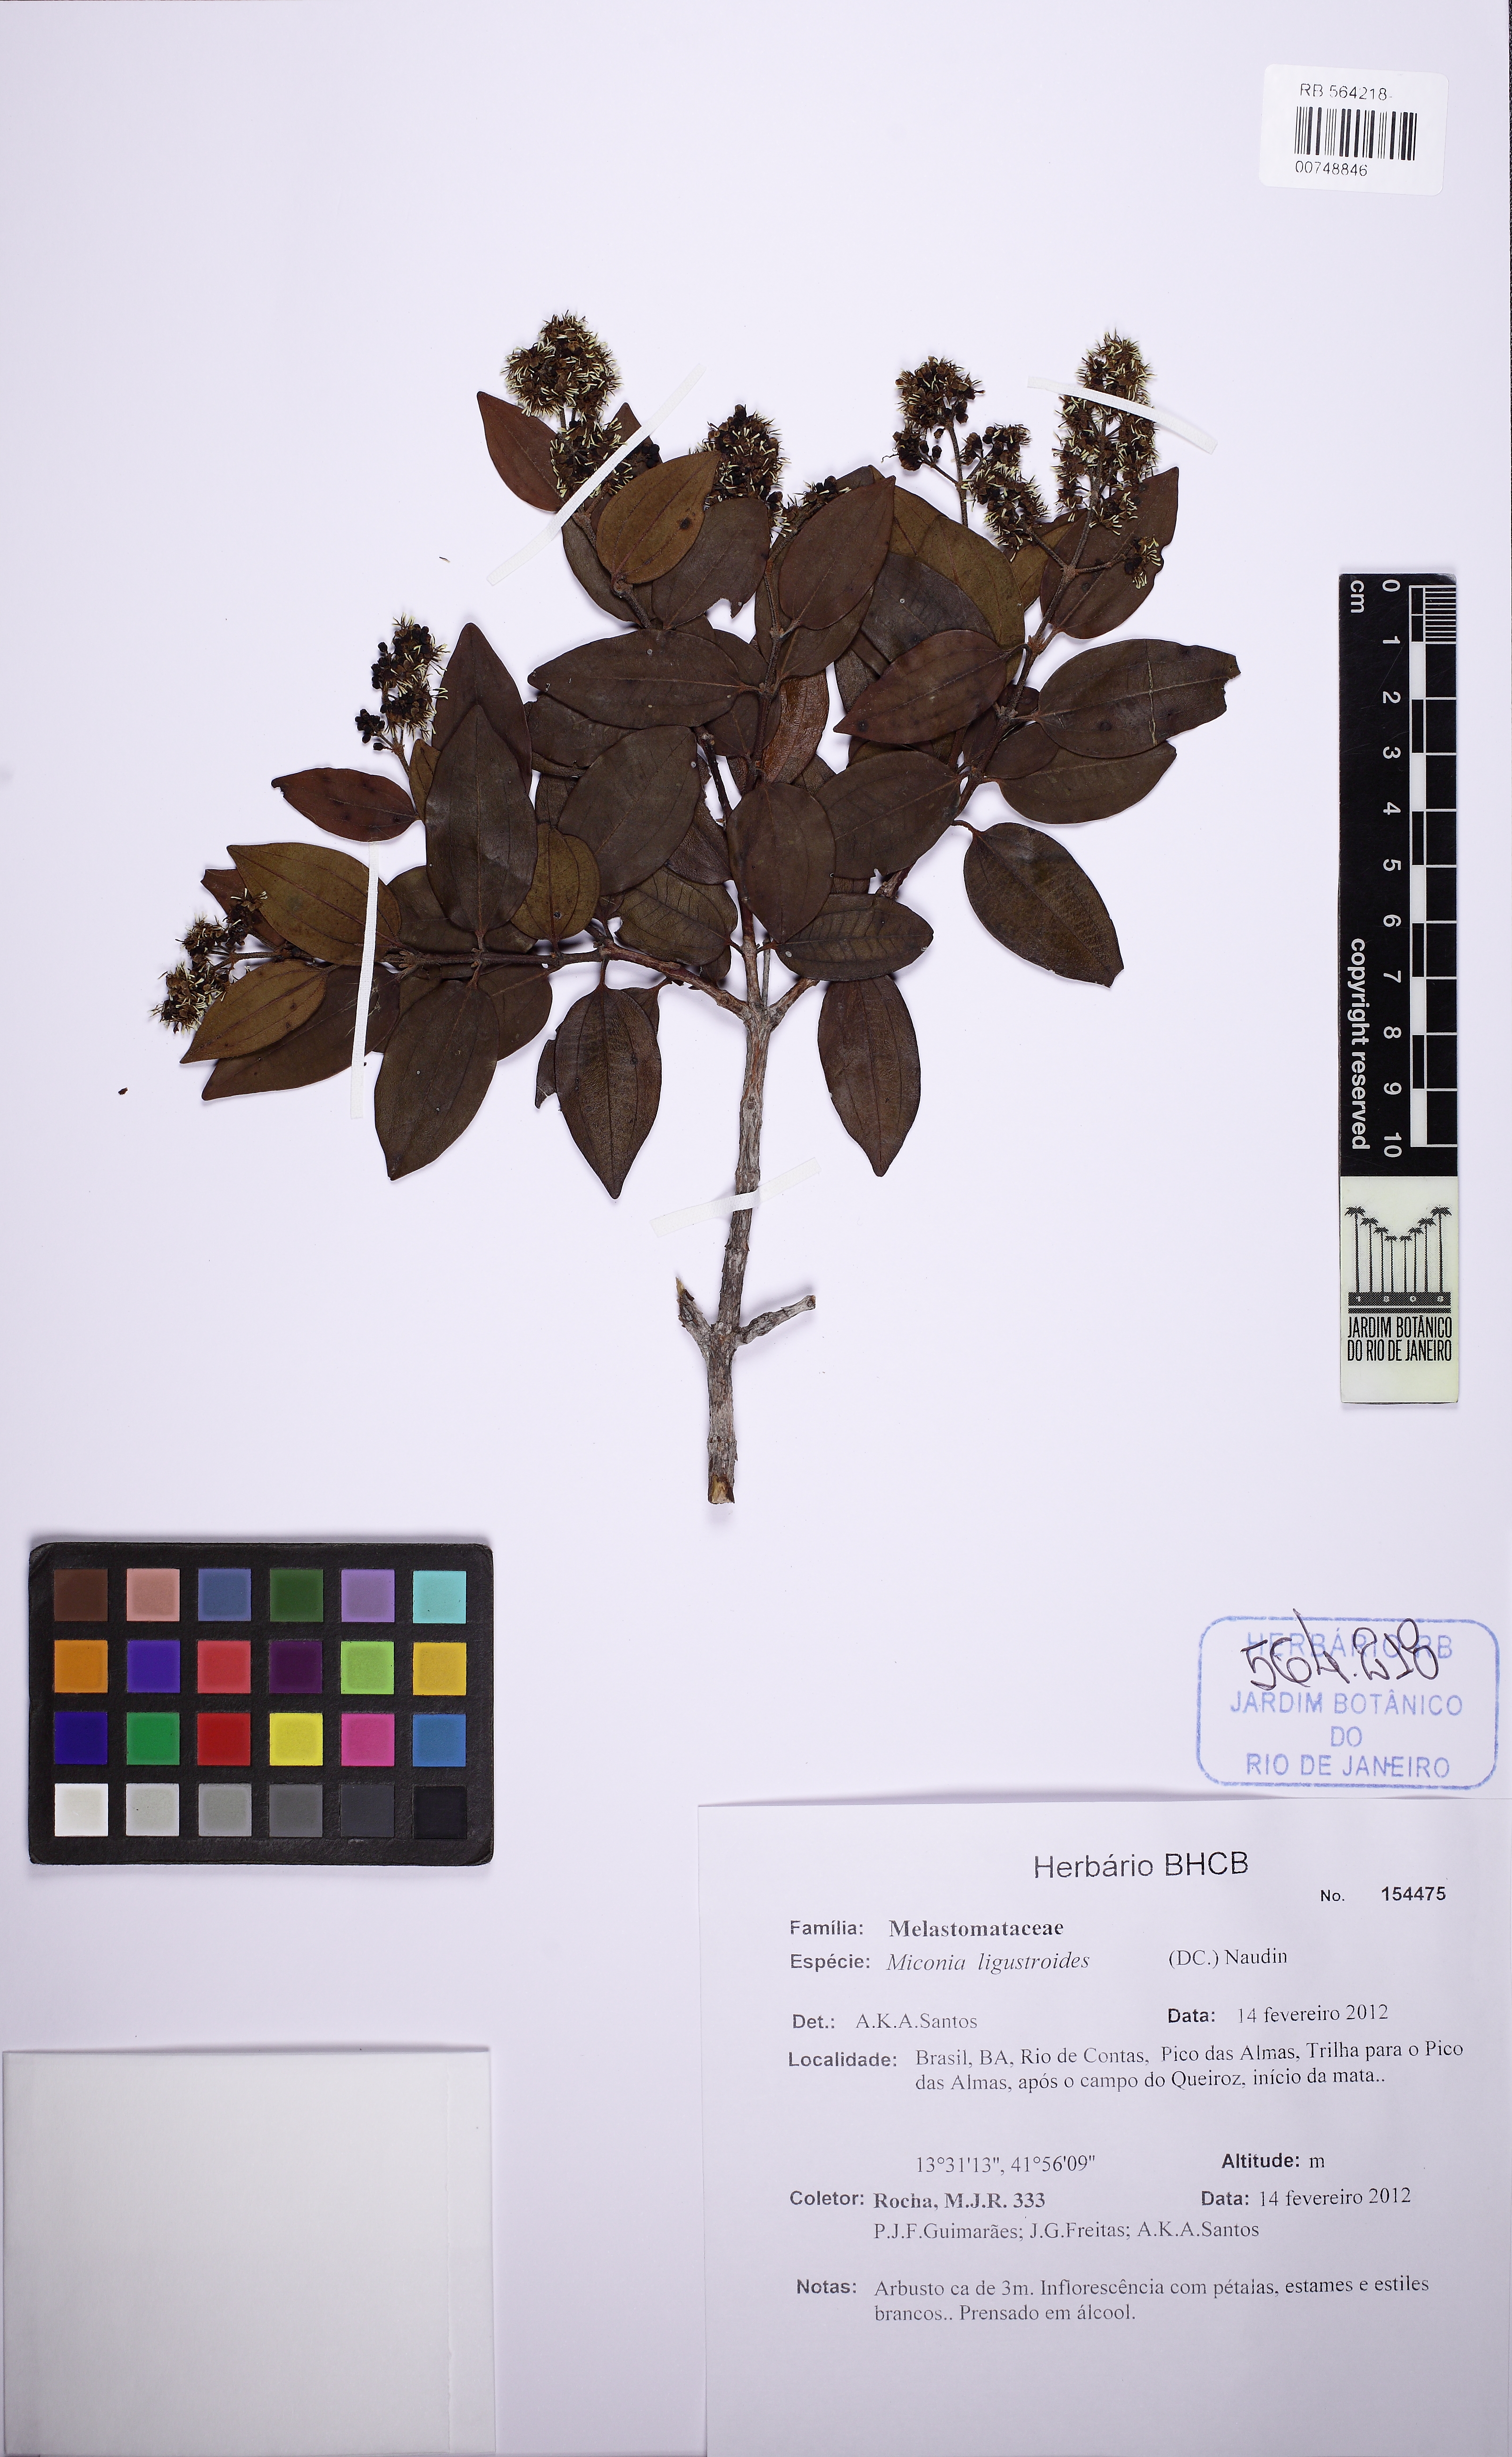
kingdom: Plantae
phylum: Tracheophyta
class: Magnoliopsida
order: Myrtales
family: Melastomataceae
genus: Miconia
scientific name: Miconia
